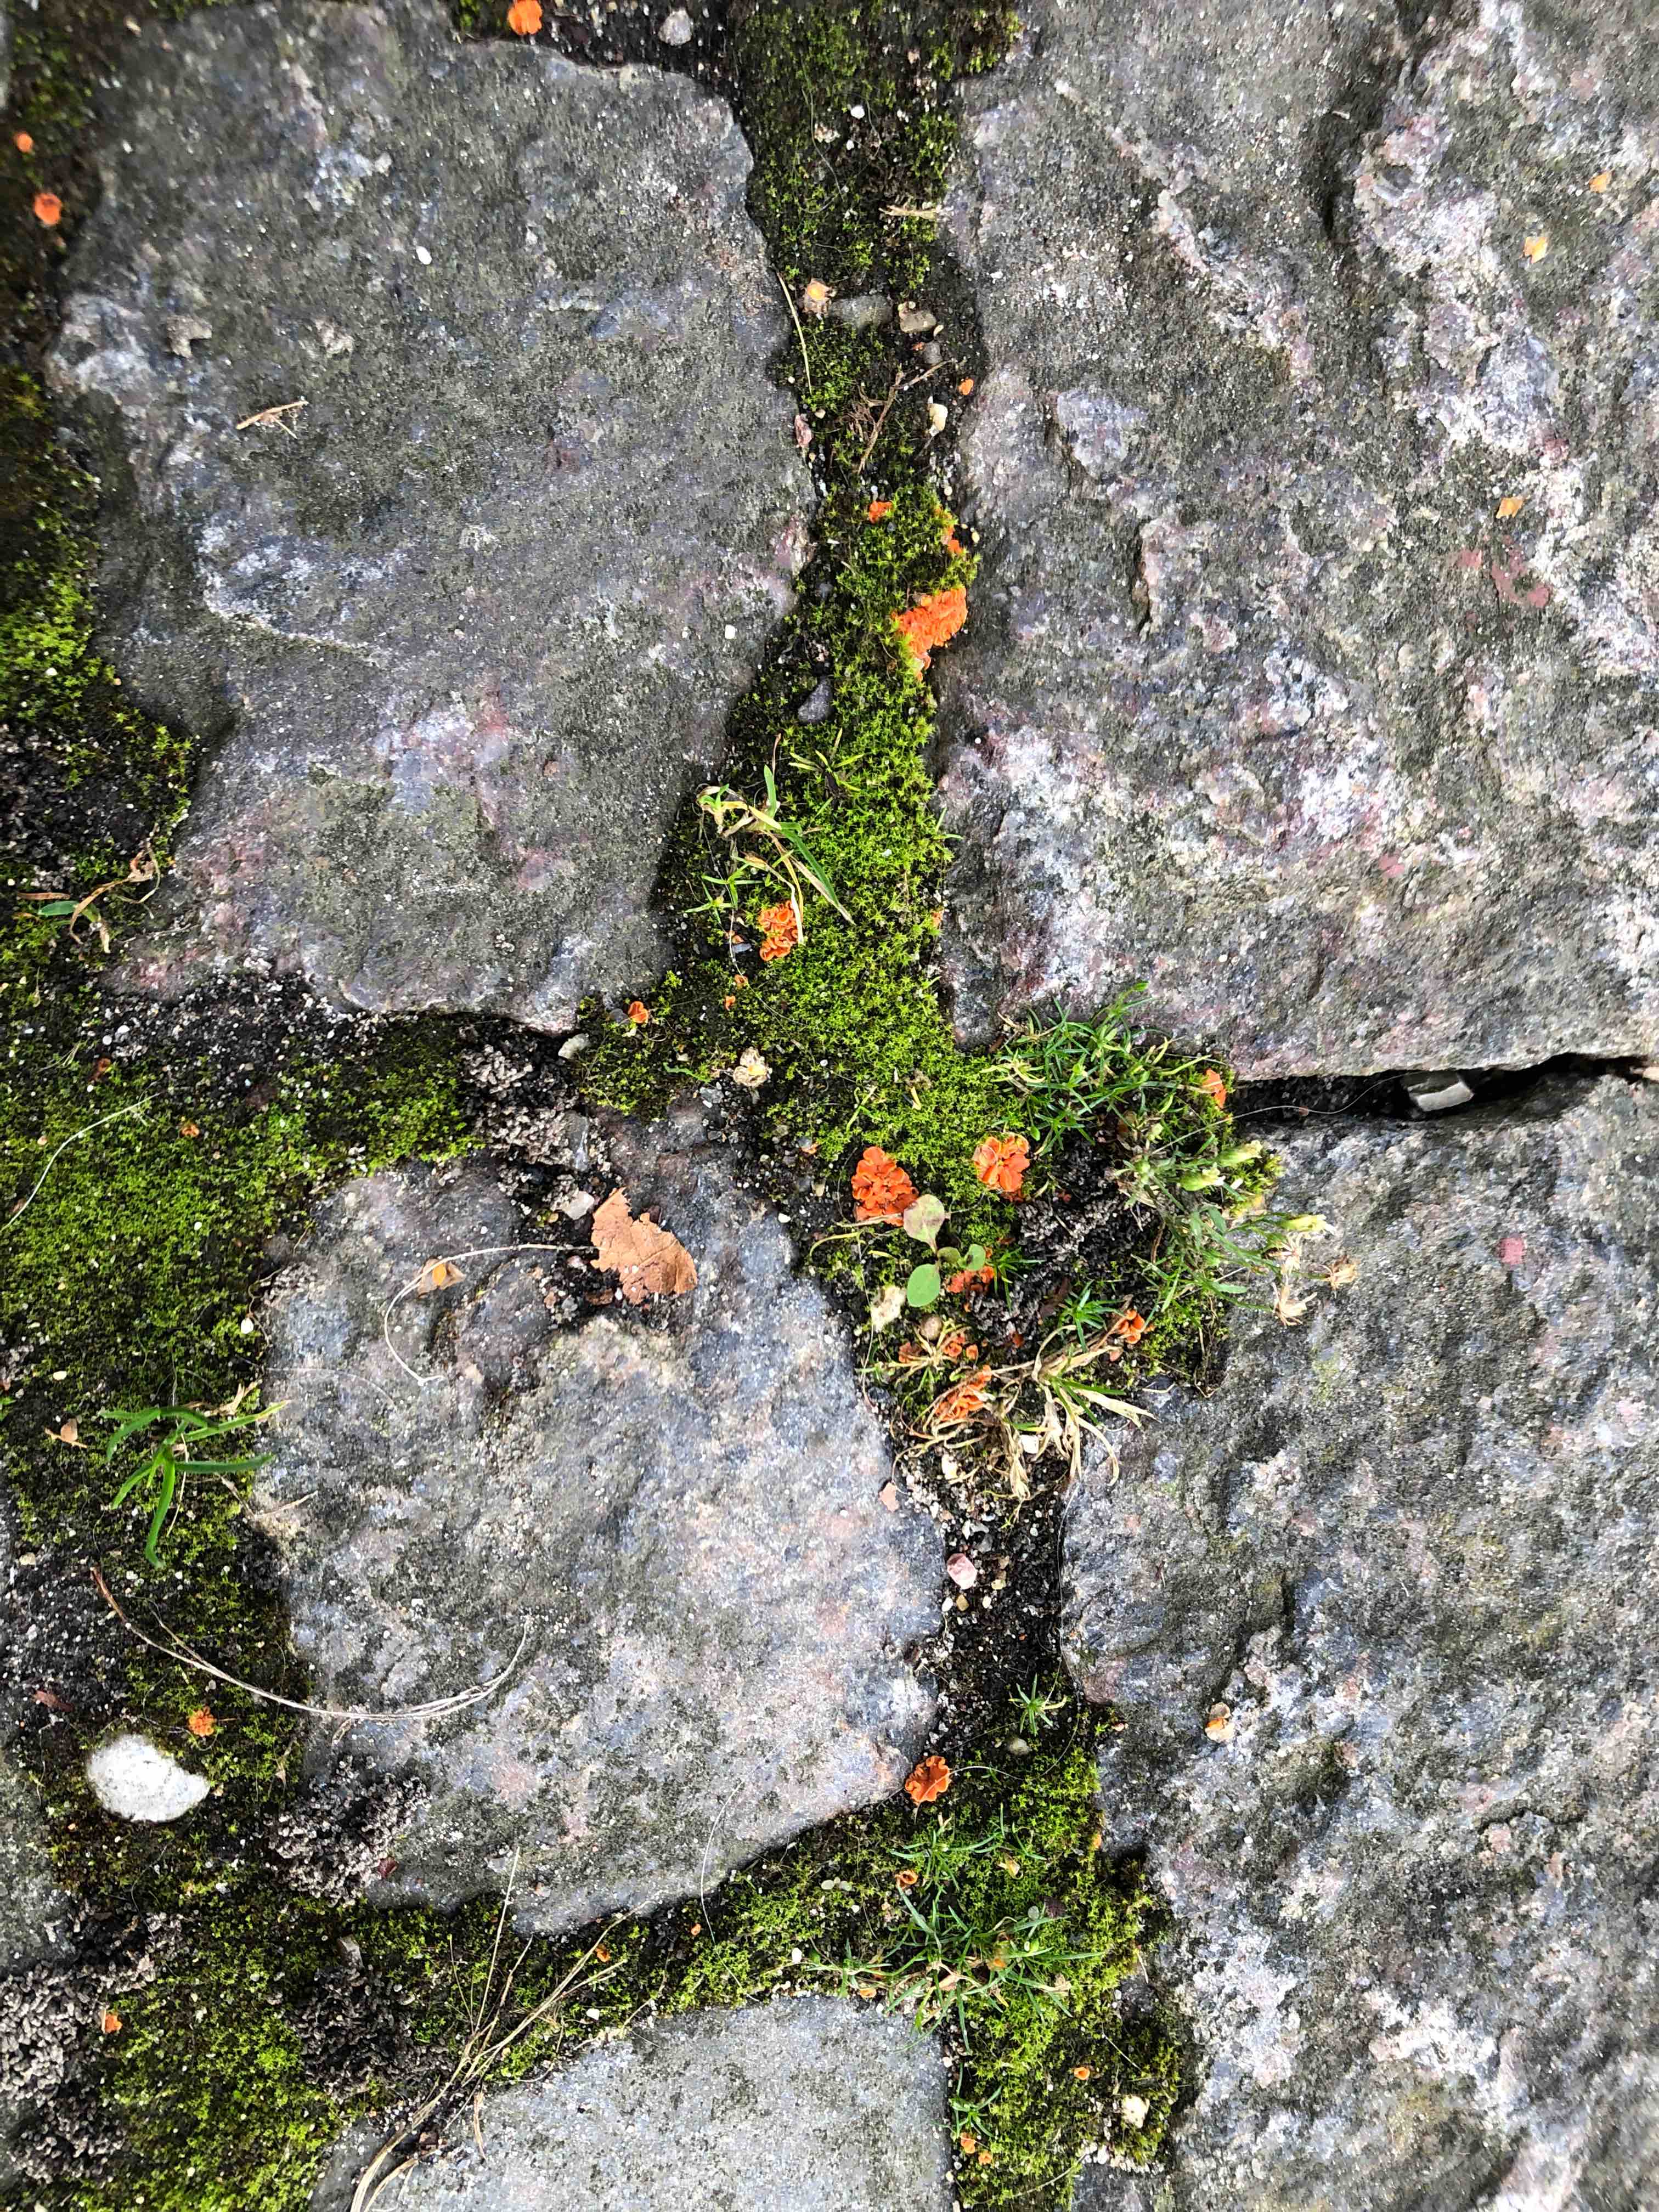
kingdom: Fungi
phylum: Ascomycota
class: Pezizomycetes
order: Pezizales
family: Pulvinulaceae
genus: Pulvinula
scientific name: Pulvinula miltina
